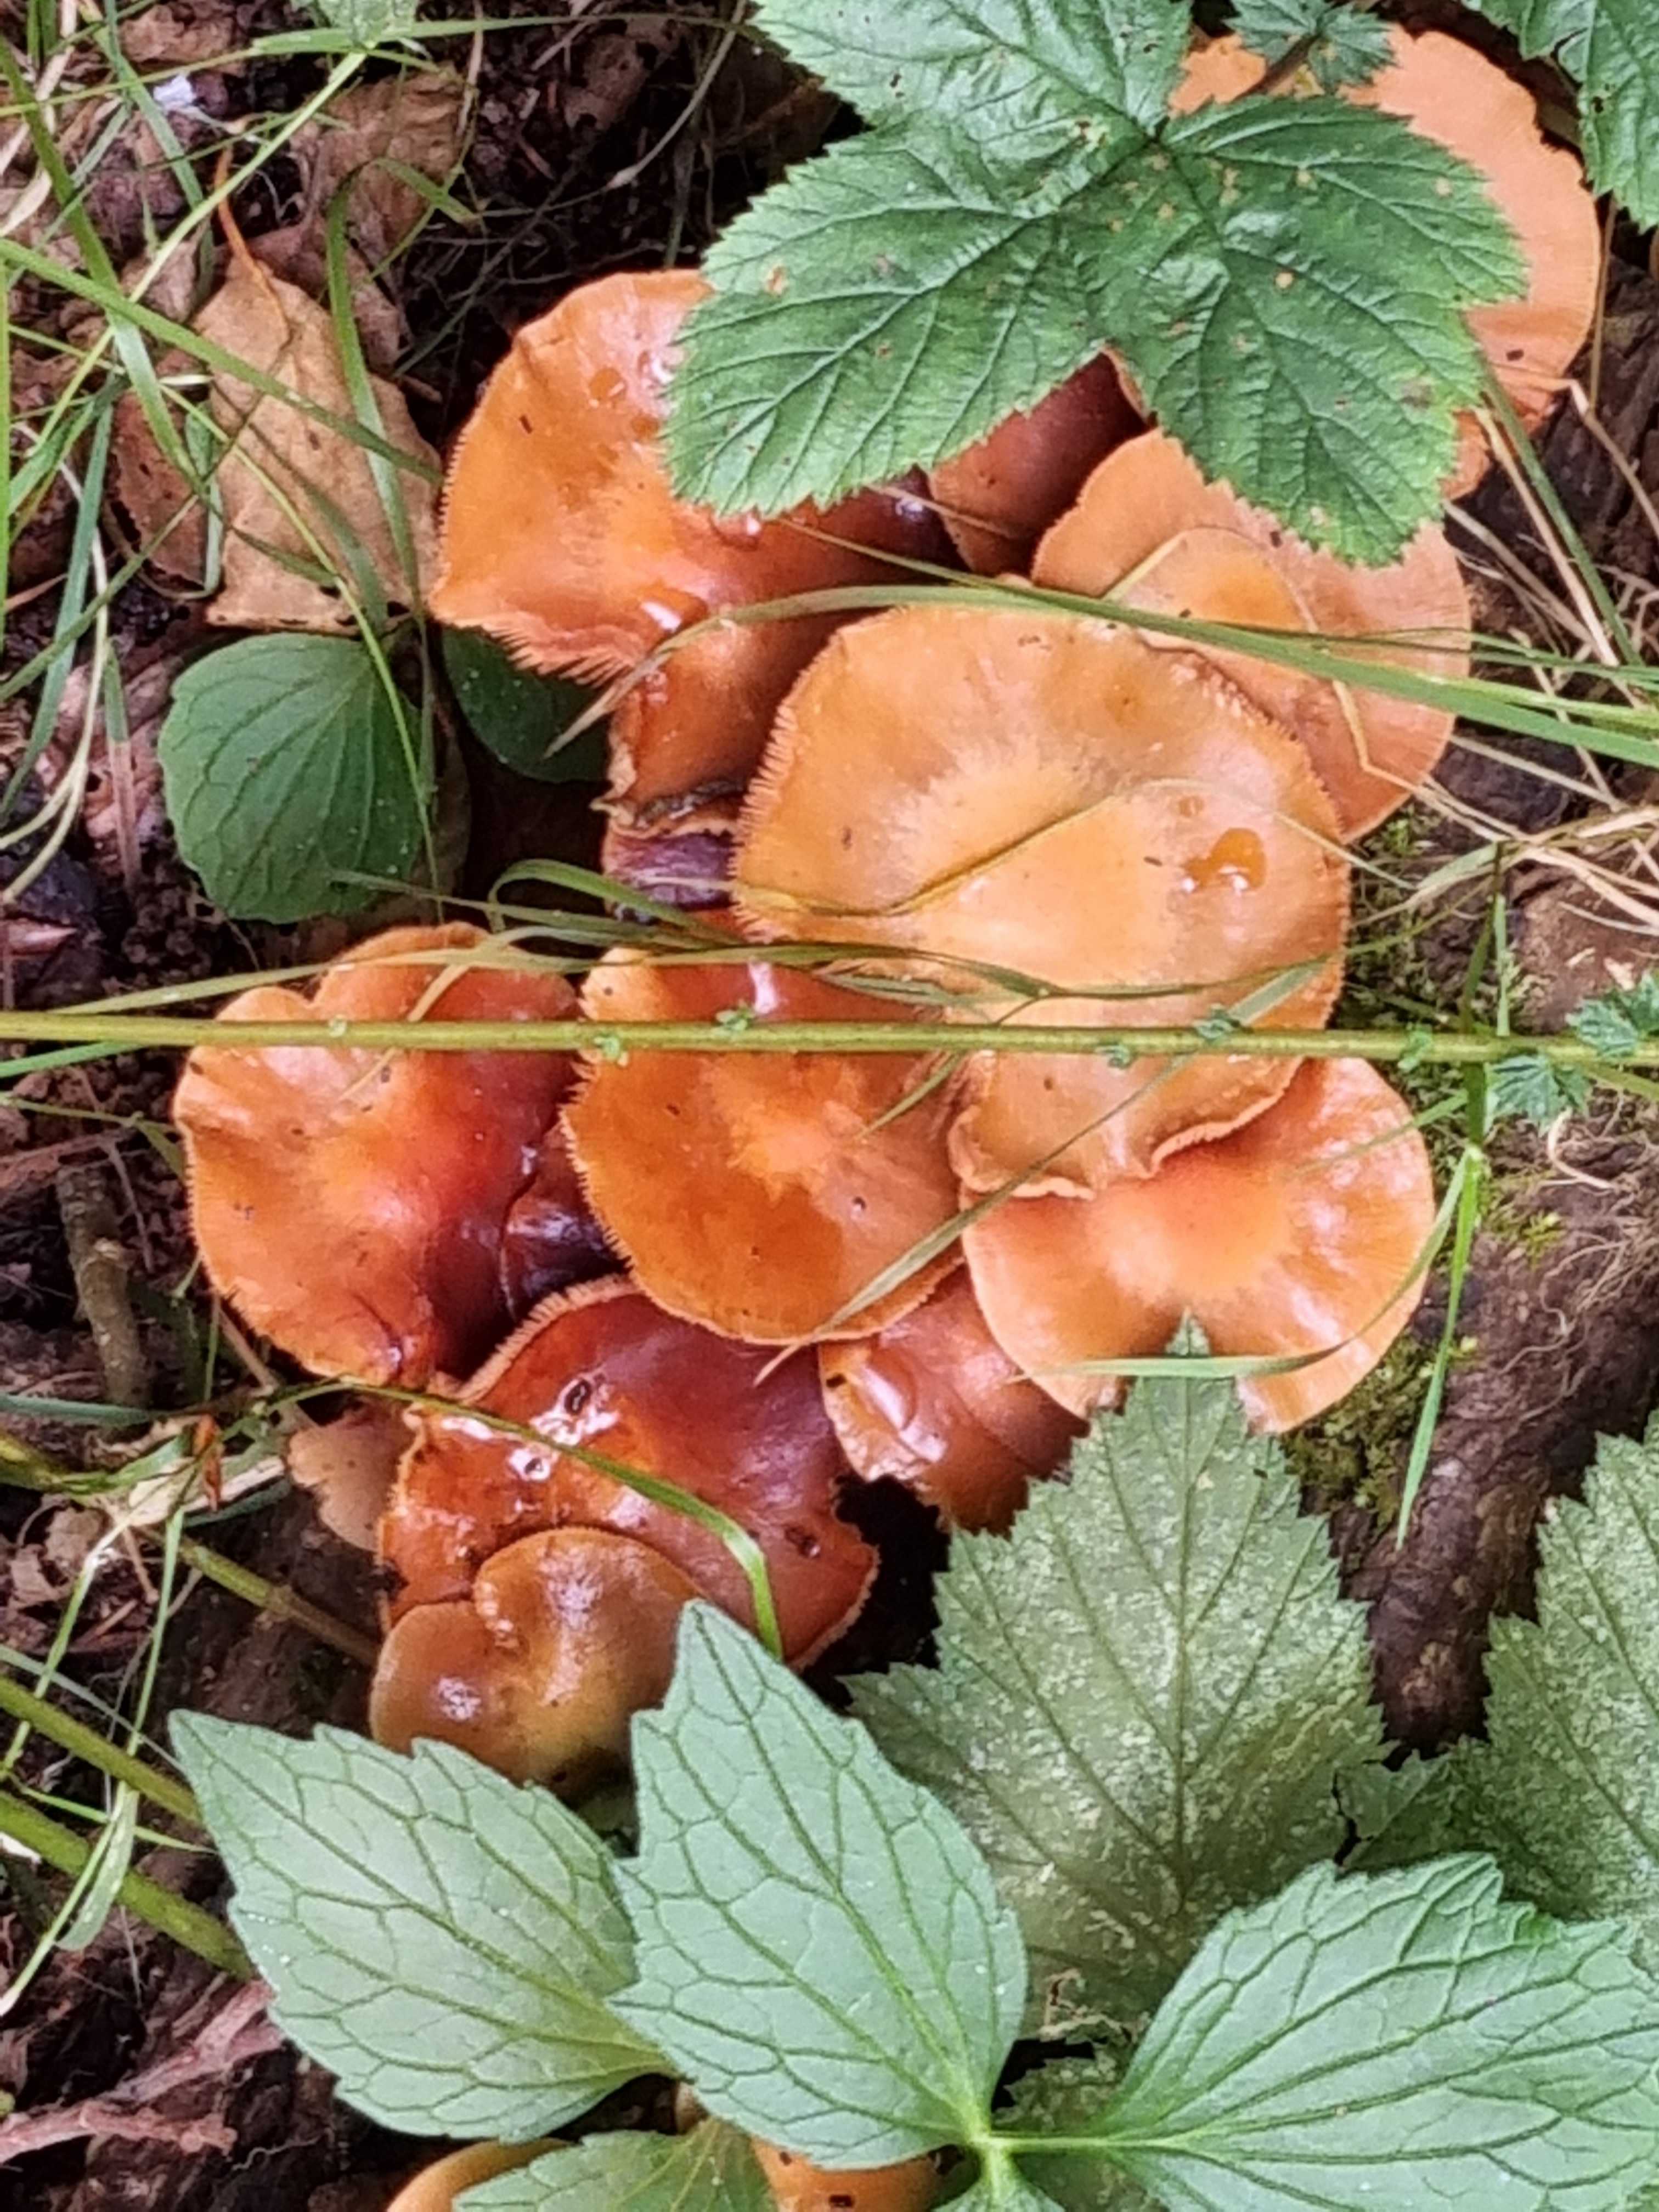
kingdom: Fungi
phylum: Basidiomycota
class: Agaricomycetes
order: Agaricales
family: Strophariaceae
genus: Kuehneromyces
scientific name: Kuehneromyces mutabilis
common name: foranderlig skælhat
